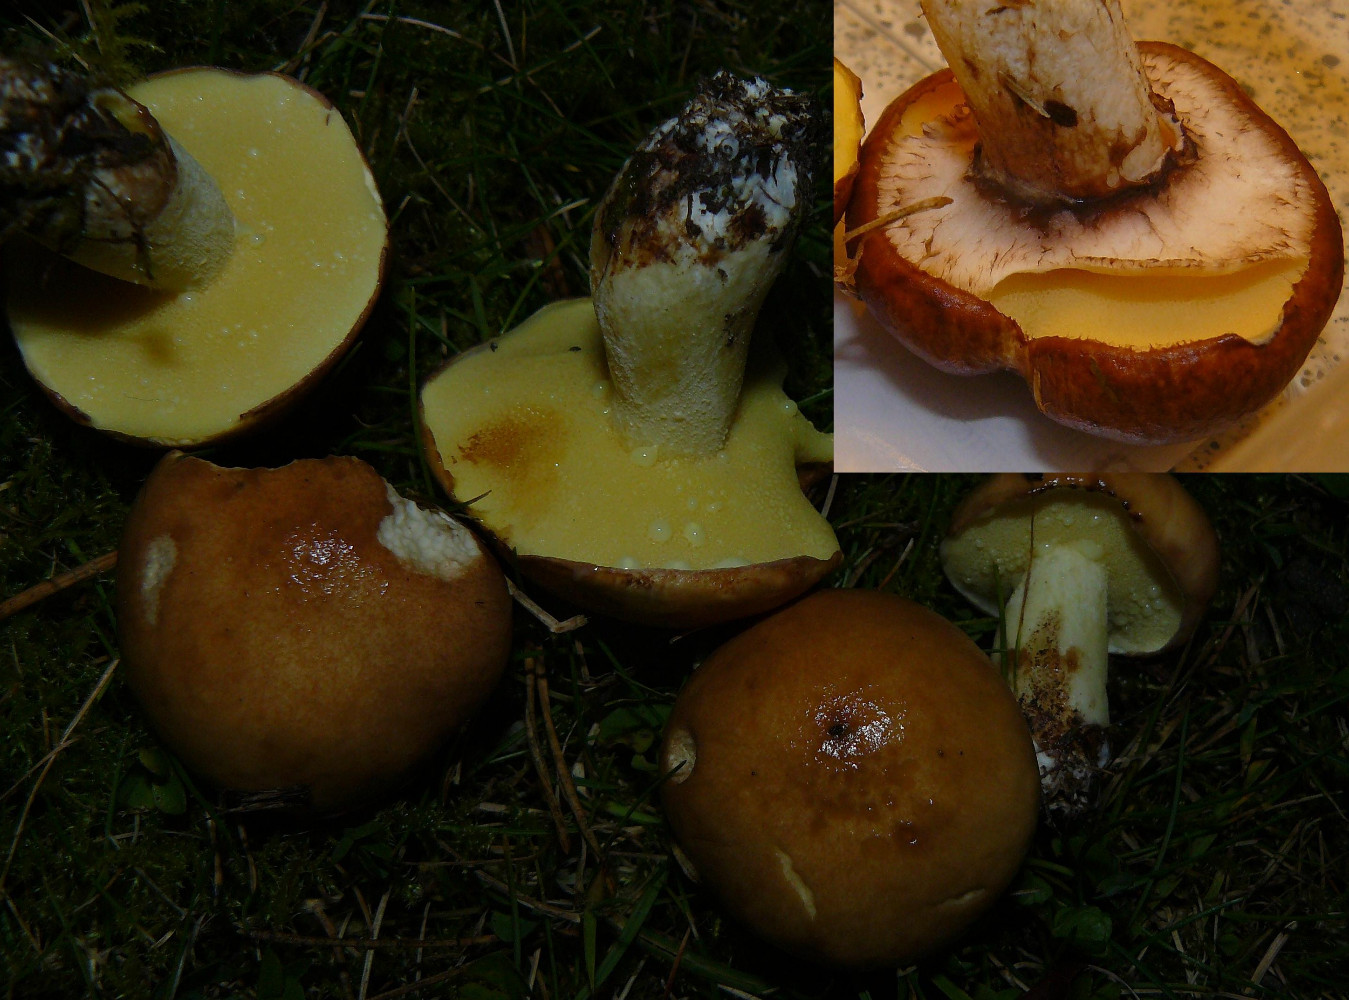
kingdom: Fungi
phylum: Basidiomycota
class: Agaricomycetes
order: Boletales
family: Suillaceae
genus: Suillus
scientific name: Suillus luteus
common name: brungul slimrørhat
